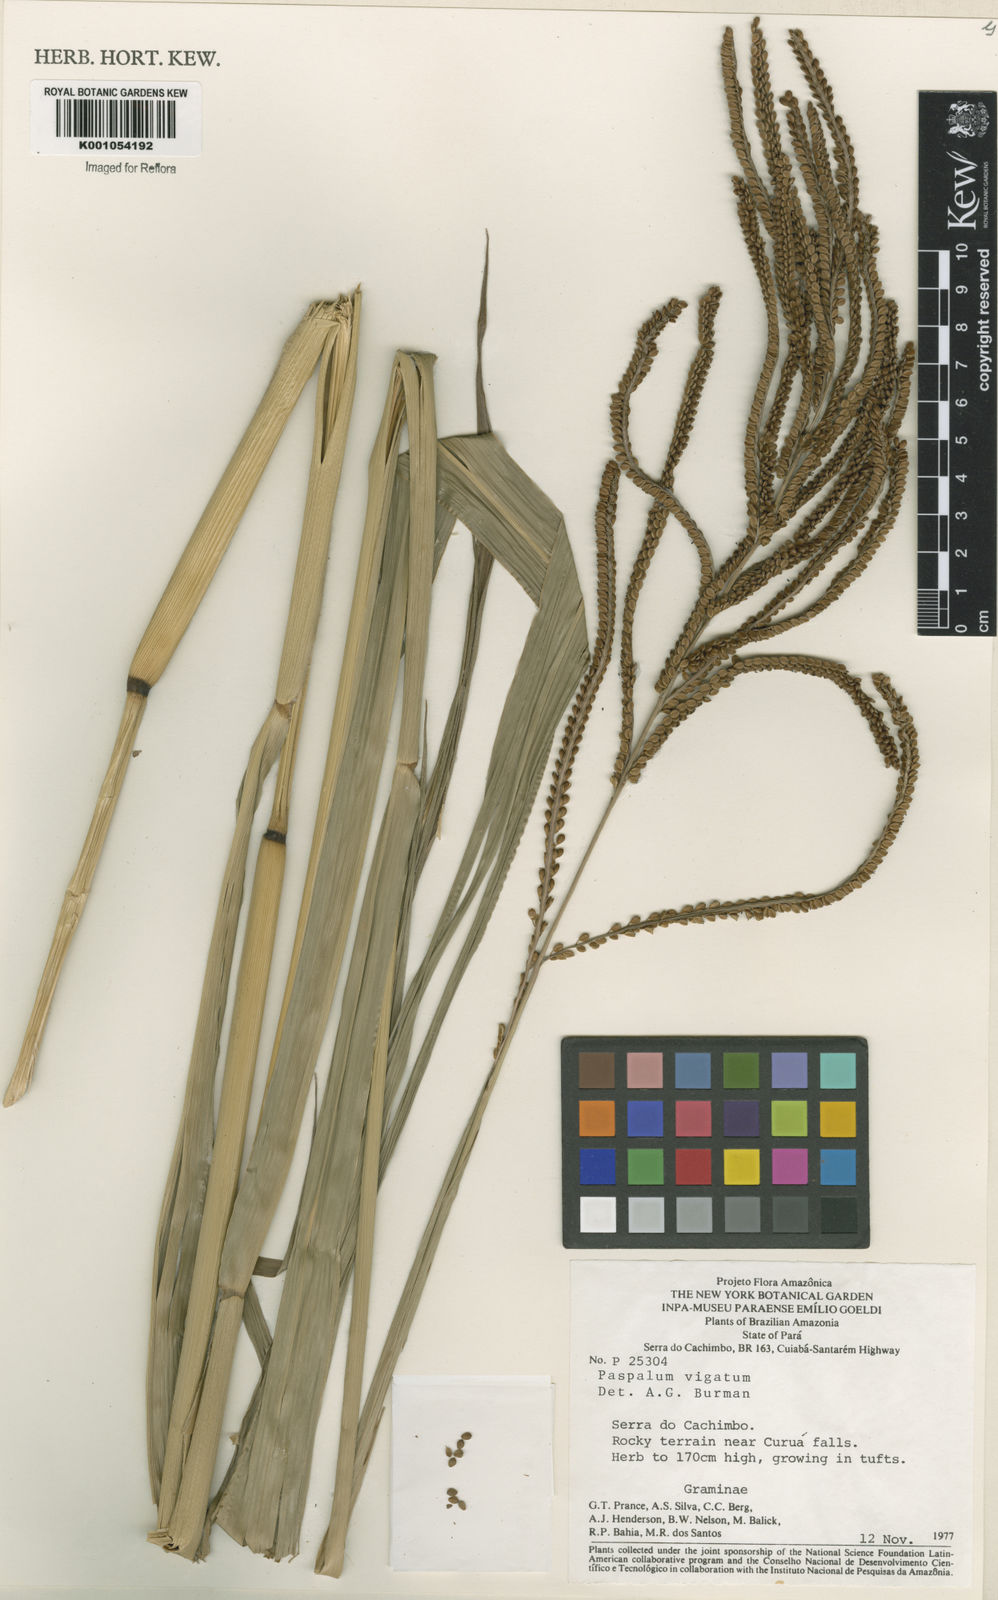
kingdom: Plantae
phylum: Tracheophyta
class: Liliopsida
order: Poales
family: Poaceae
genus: Paspalum
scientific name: Paspalum virgatum
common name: Talquezal
